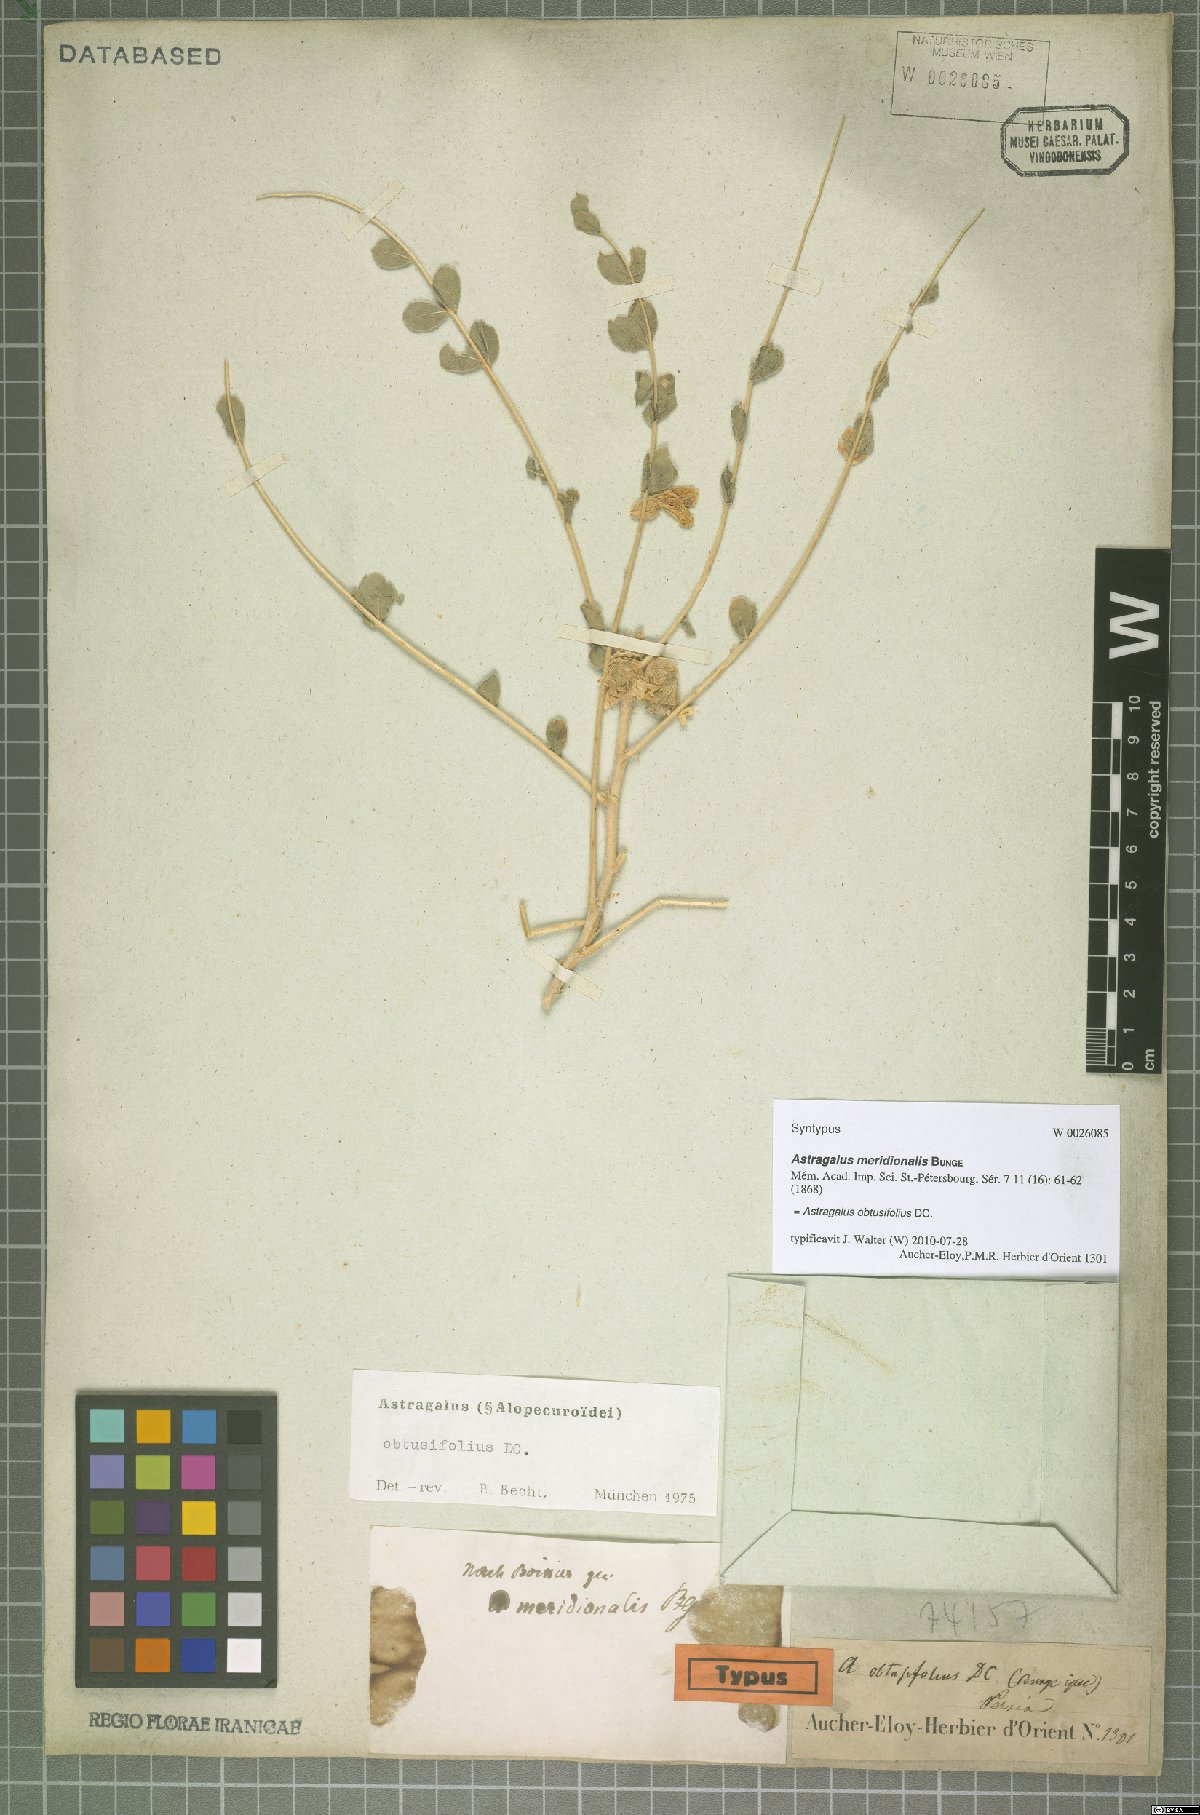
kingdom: Plantae
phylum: Tracheophyta
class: Magnoliopsida
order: Fabales
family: Fabaceae
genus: Astragalus
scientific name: Astragalus obtusifolius
